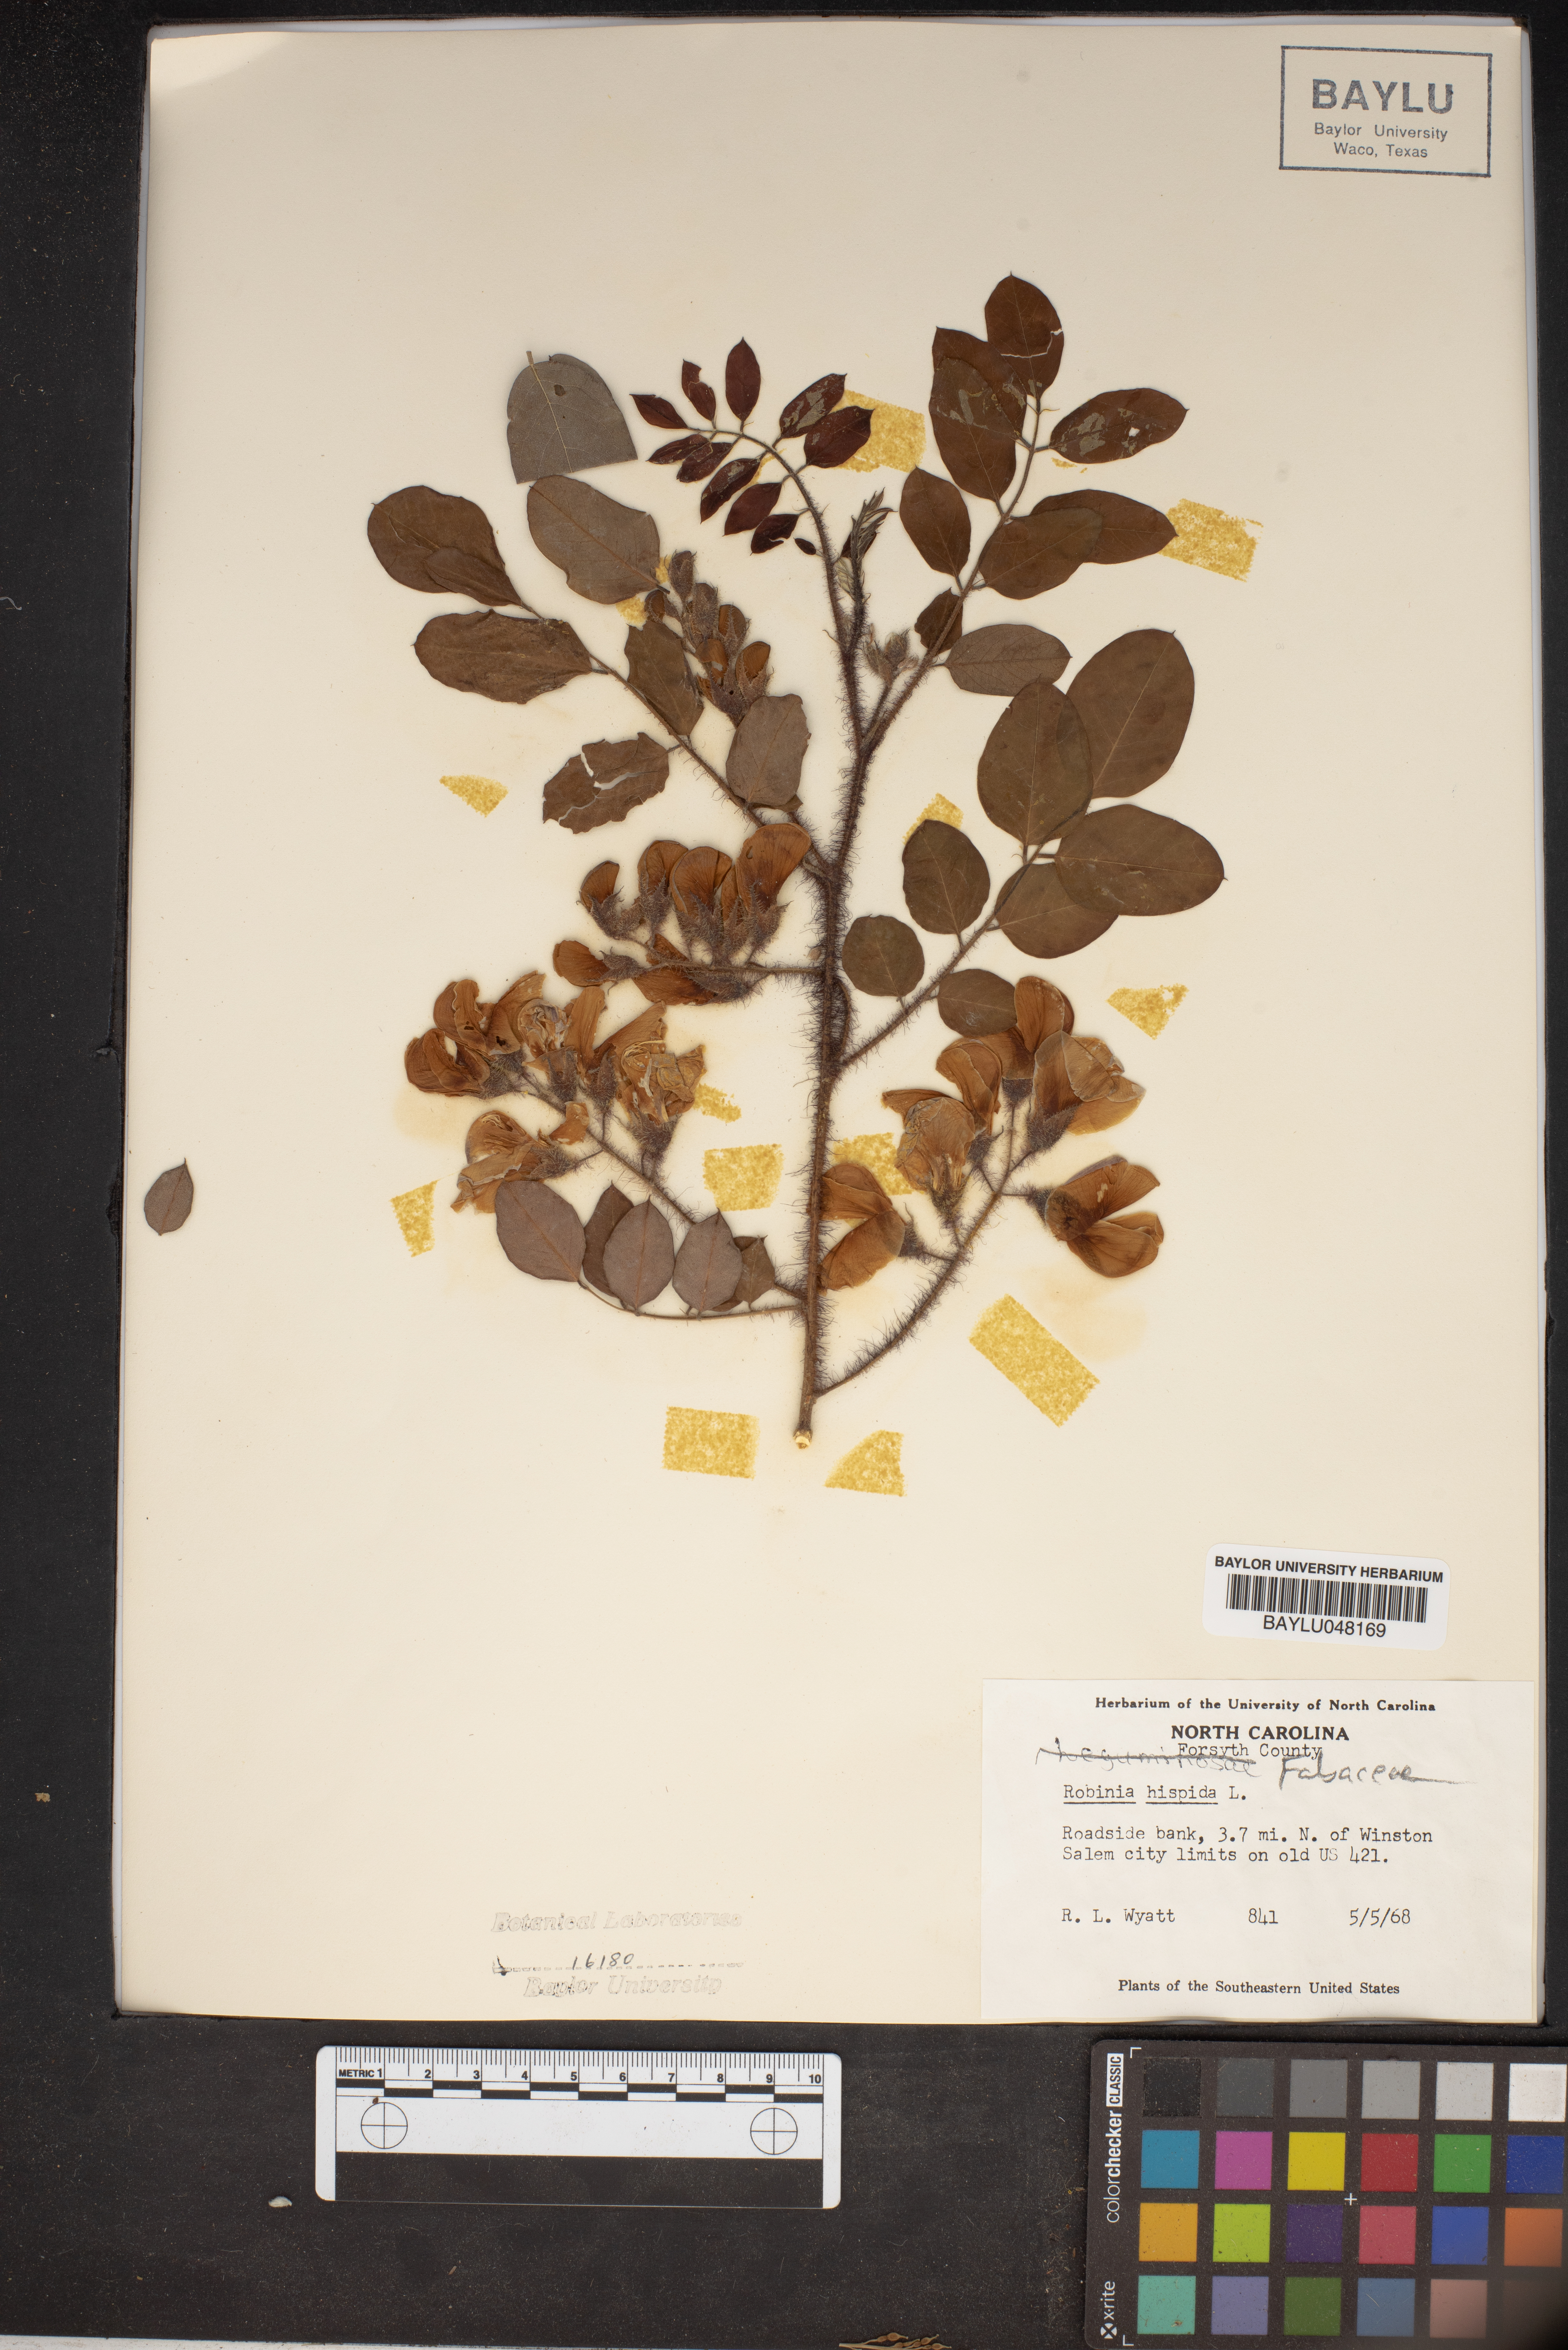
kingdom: Plantae
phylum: Tracheophyta
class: Magnoliopsida
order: Fabales
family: Fabaceae
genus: Robinia
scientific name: Robinia hispida
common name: Bristly locust
